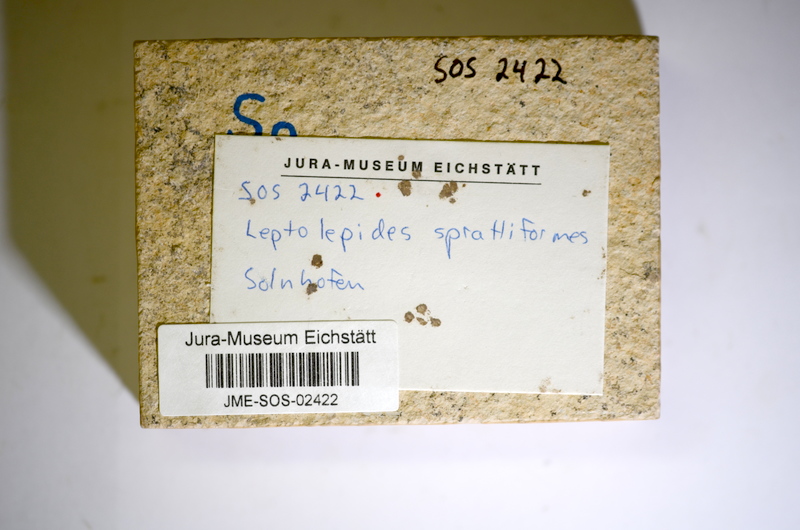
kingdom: Animalia
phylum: Chordata
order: Salmoniformes
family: Orthogonikleithridae
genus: Leptolepides
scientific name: Leptolepides
